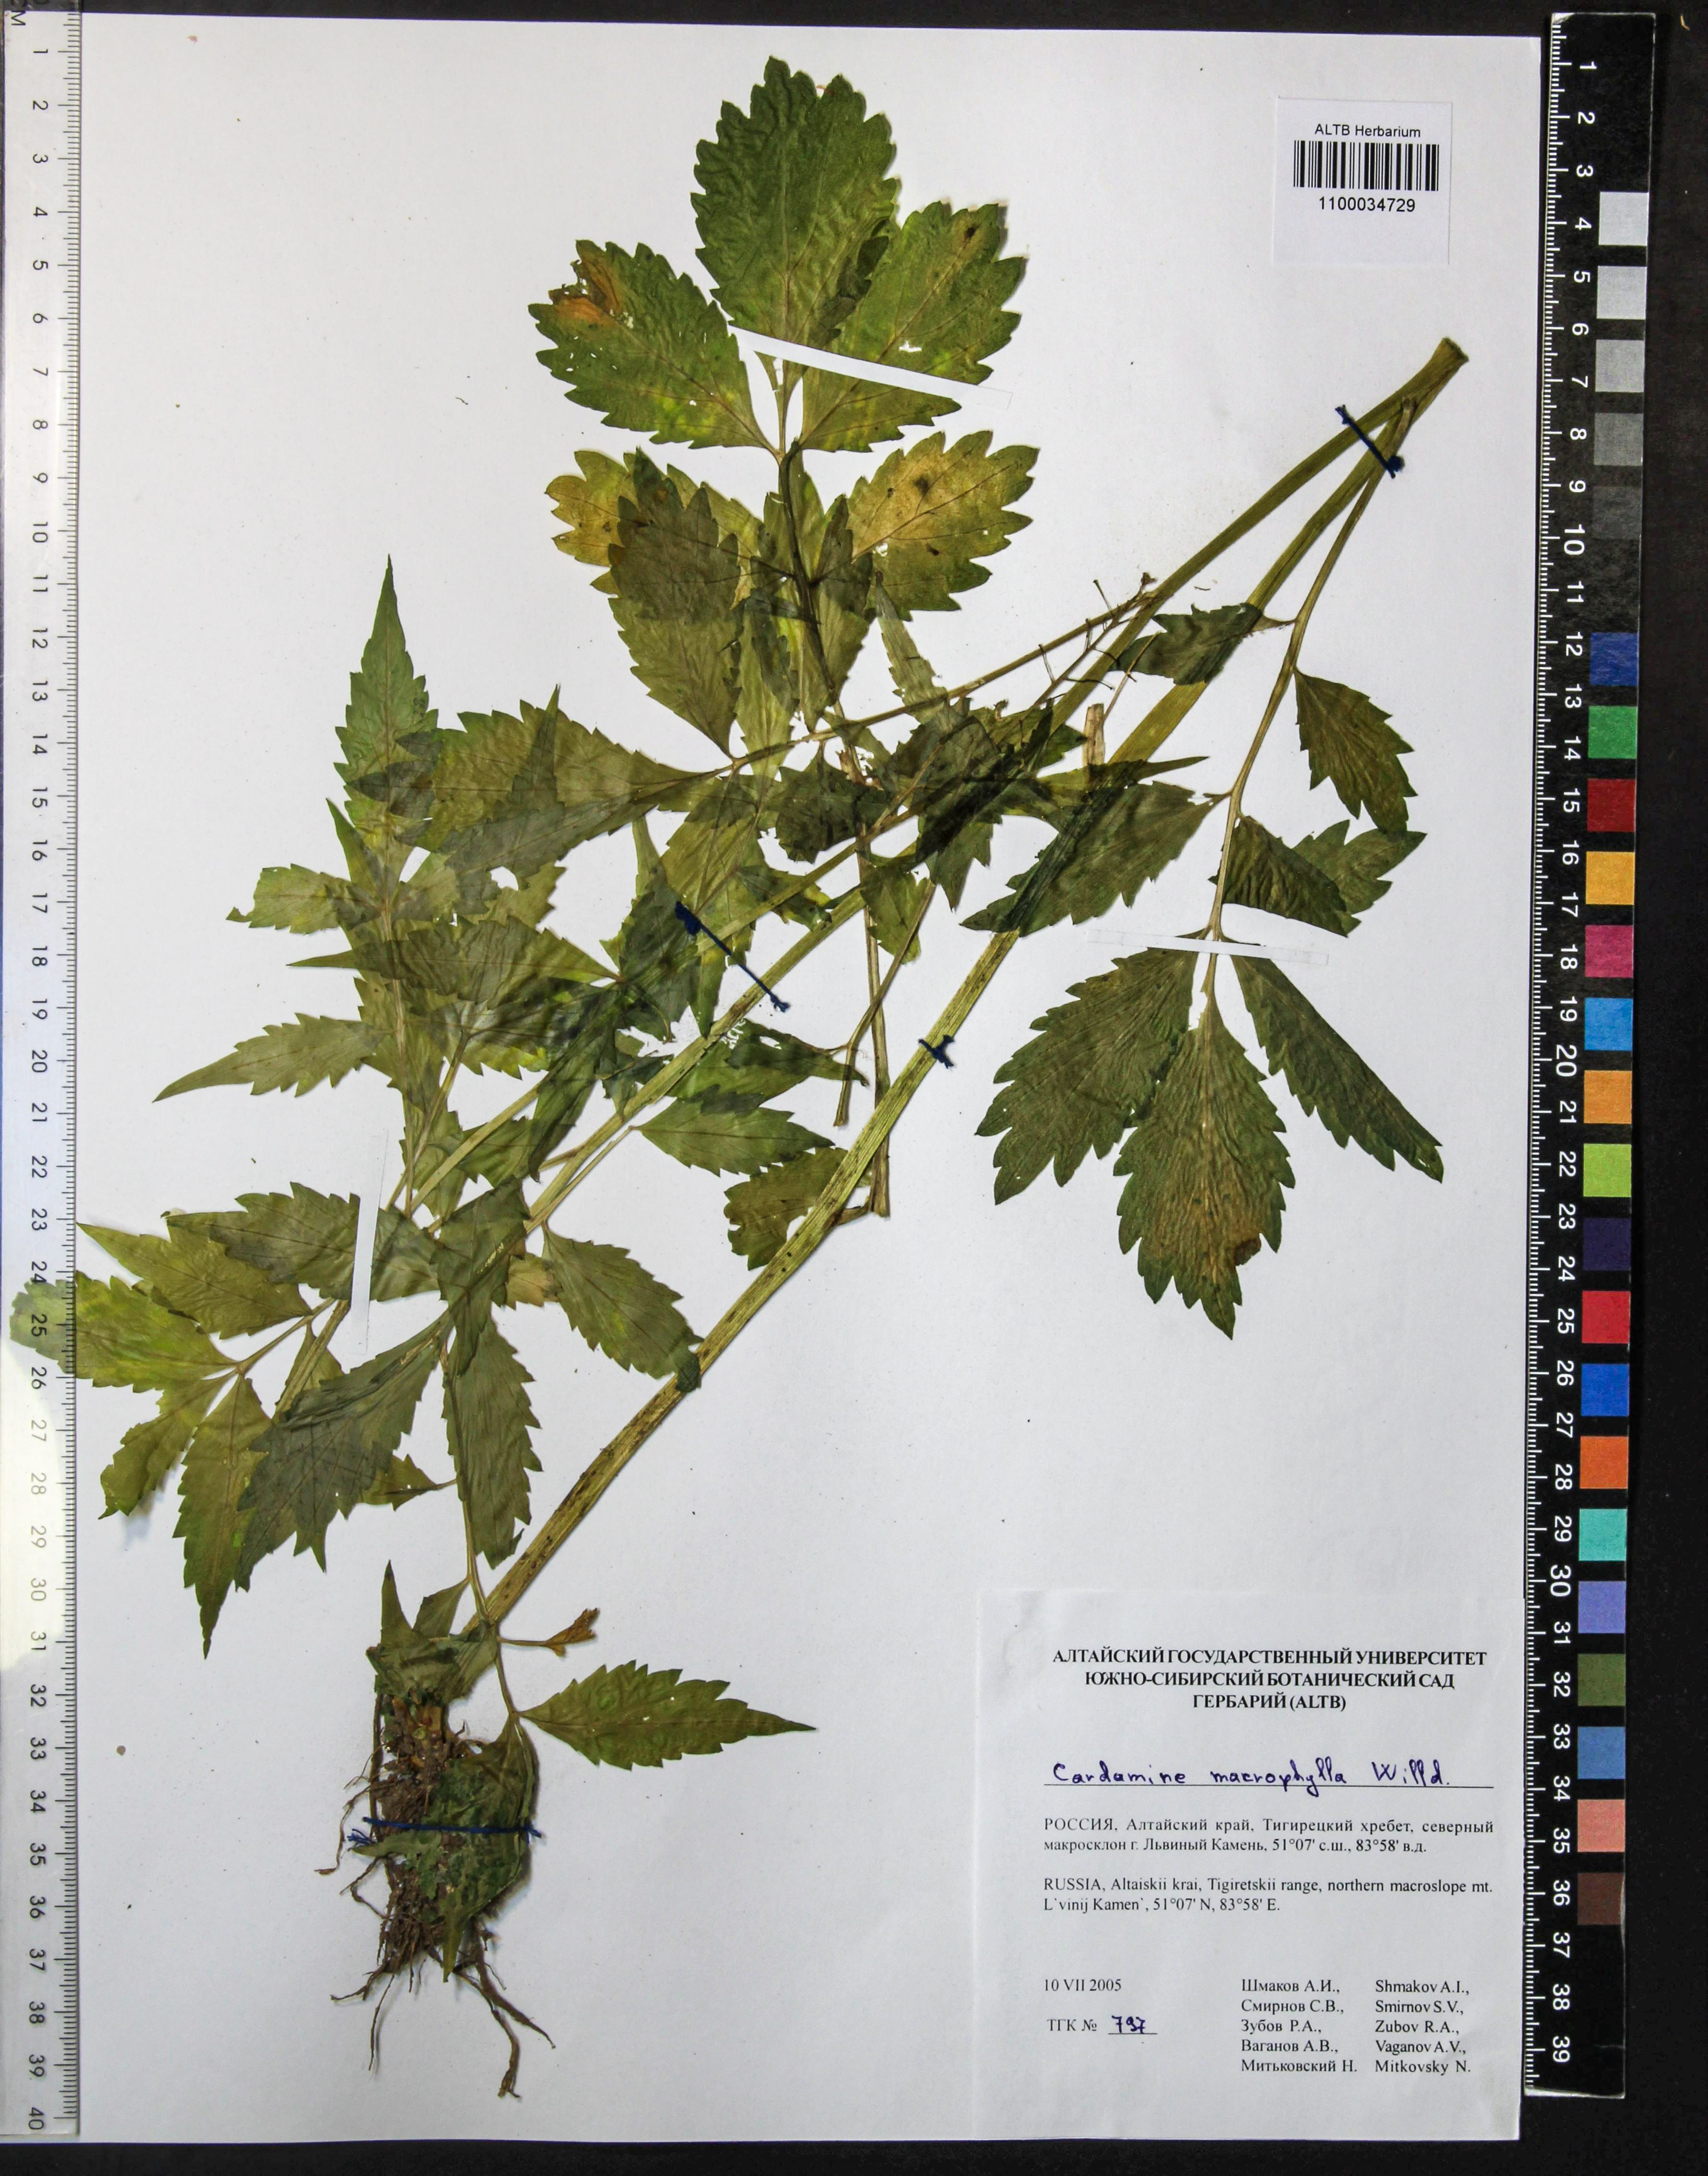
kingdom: Plantae
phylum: Tracheophyta
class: Magnoliopsida
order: Brassicales
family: Brassicaceae
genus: Cardamine
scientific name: Cardamine macrophylla
